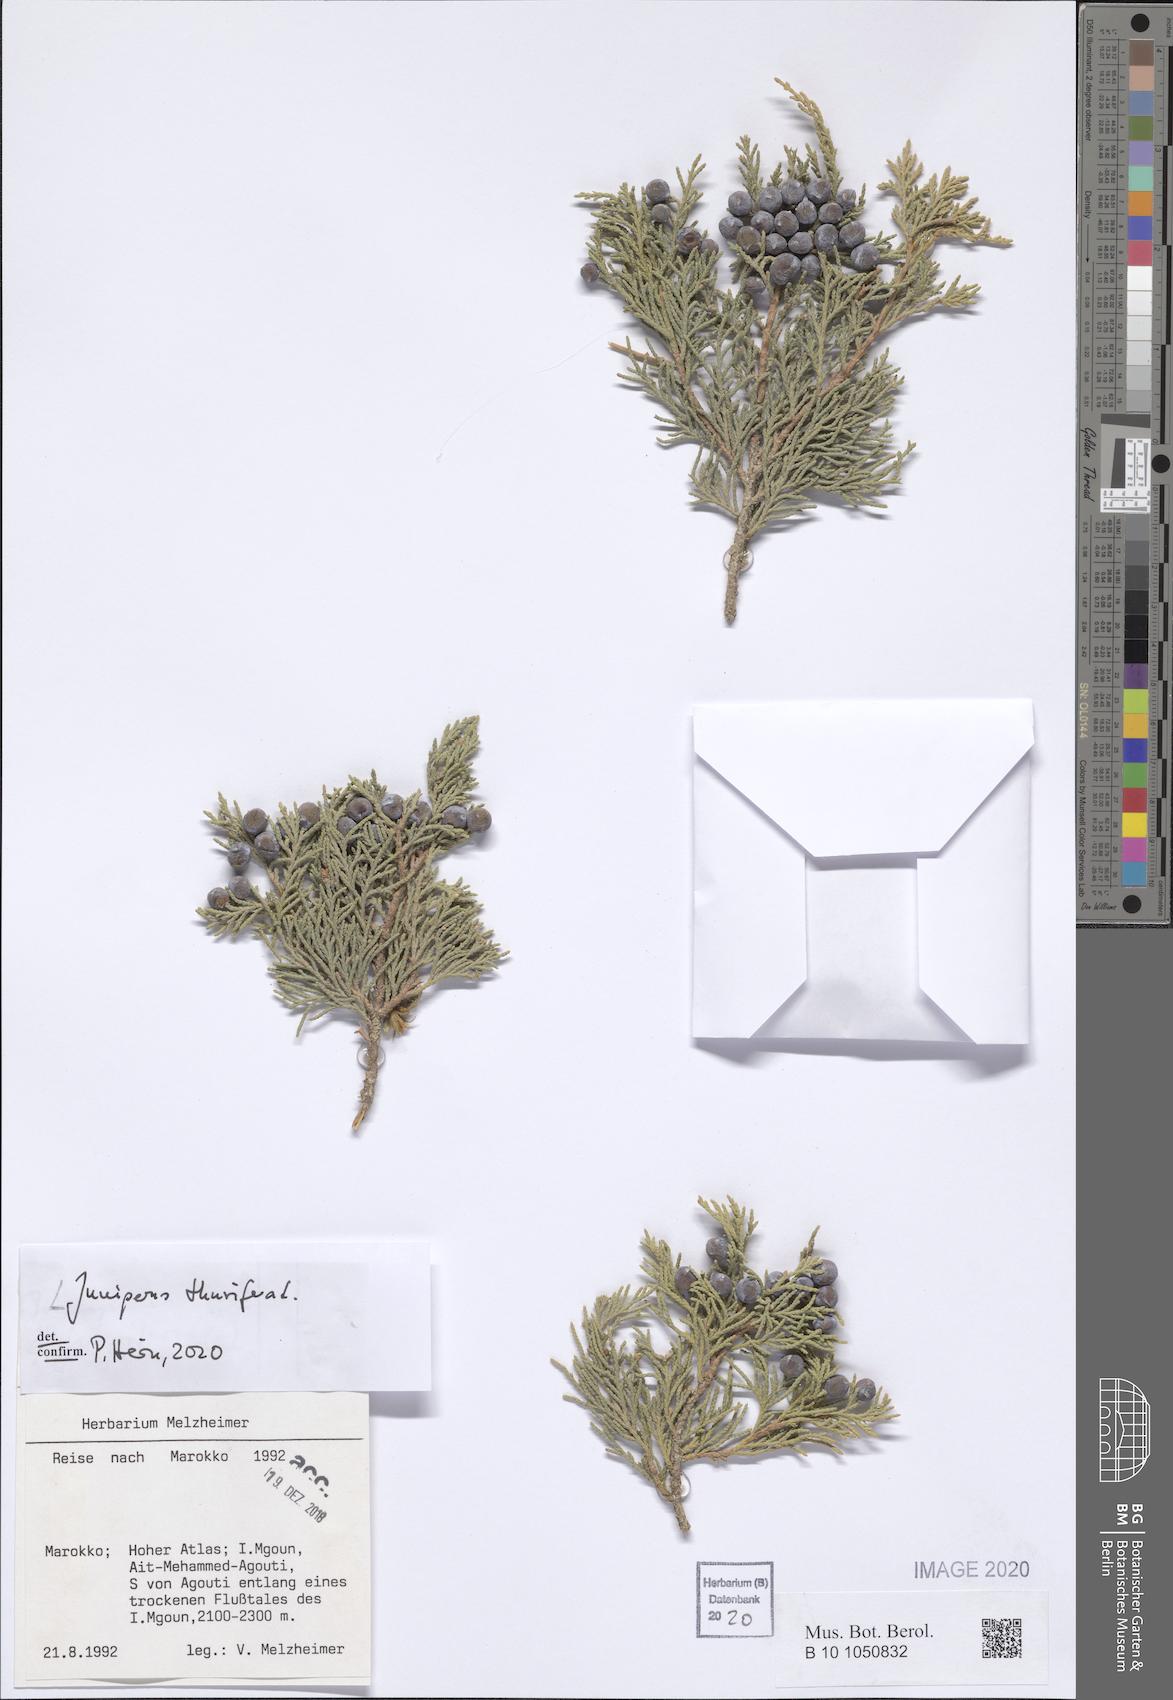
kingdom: Plantae
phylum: Tracheophyta
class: Pinopsida
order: Pinales
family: Cupressaceae
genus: Juniperus
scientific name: Juniperus thurifera
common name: Incense juniper
